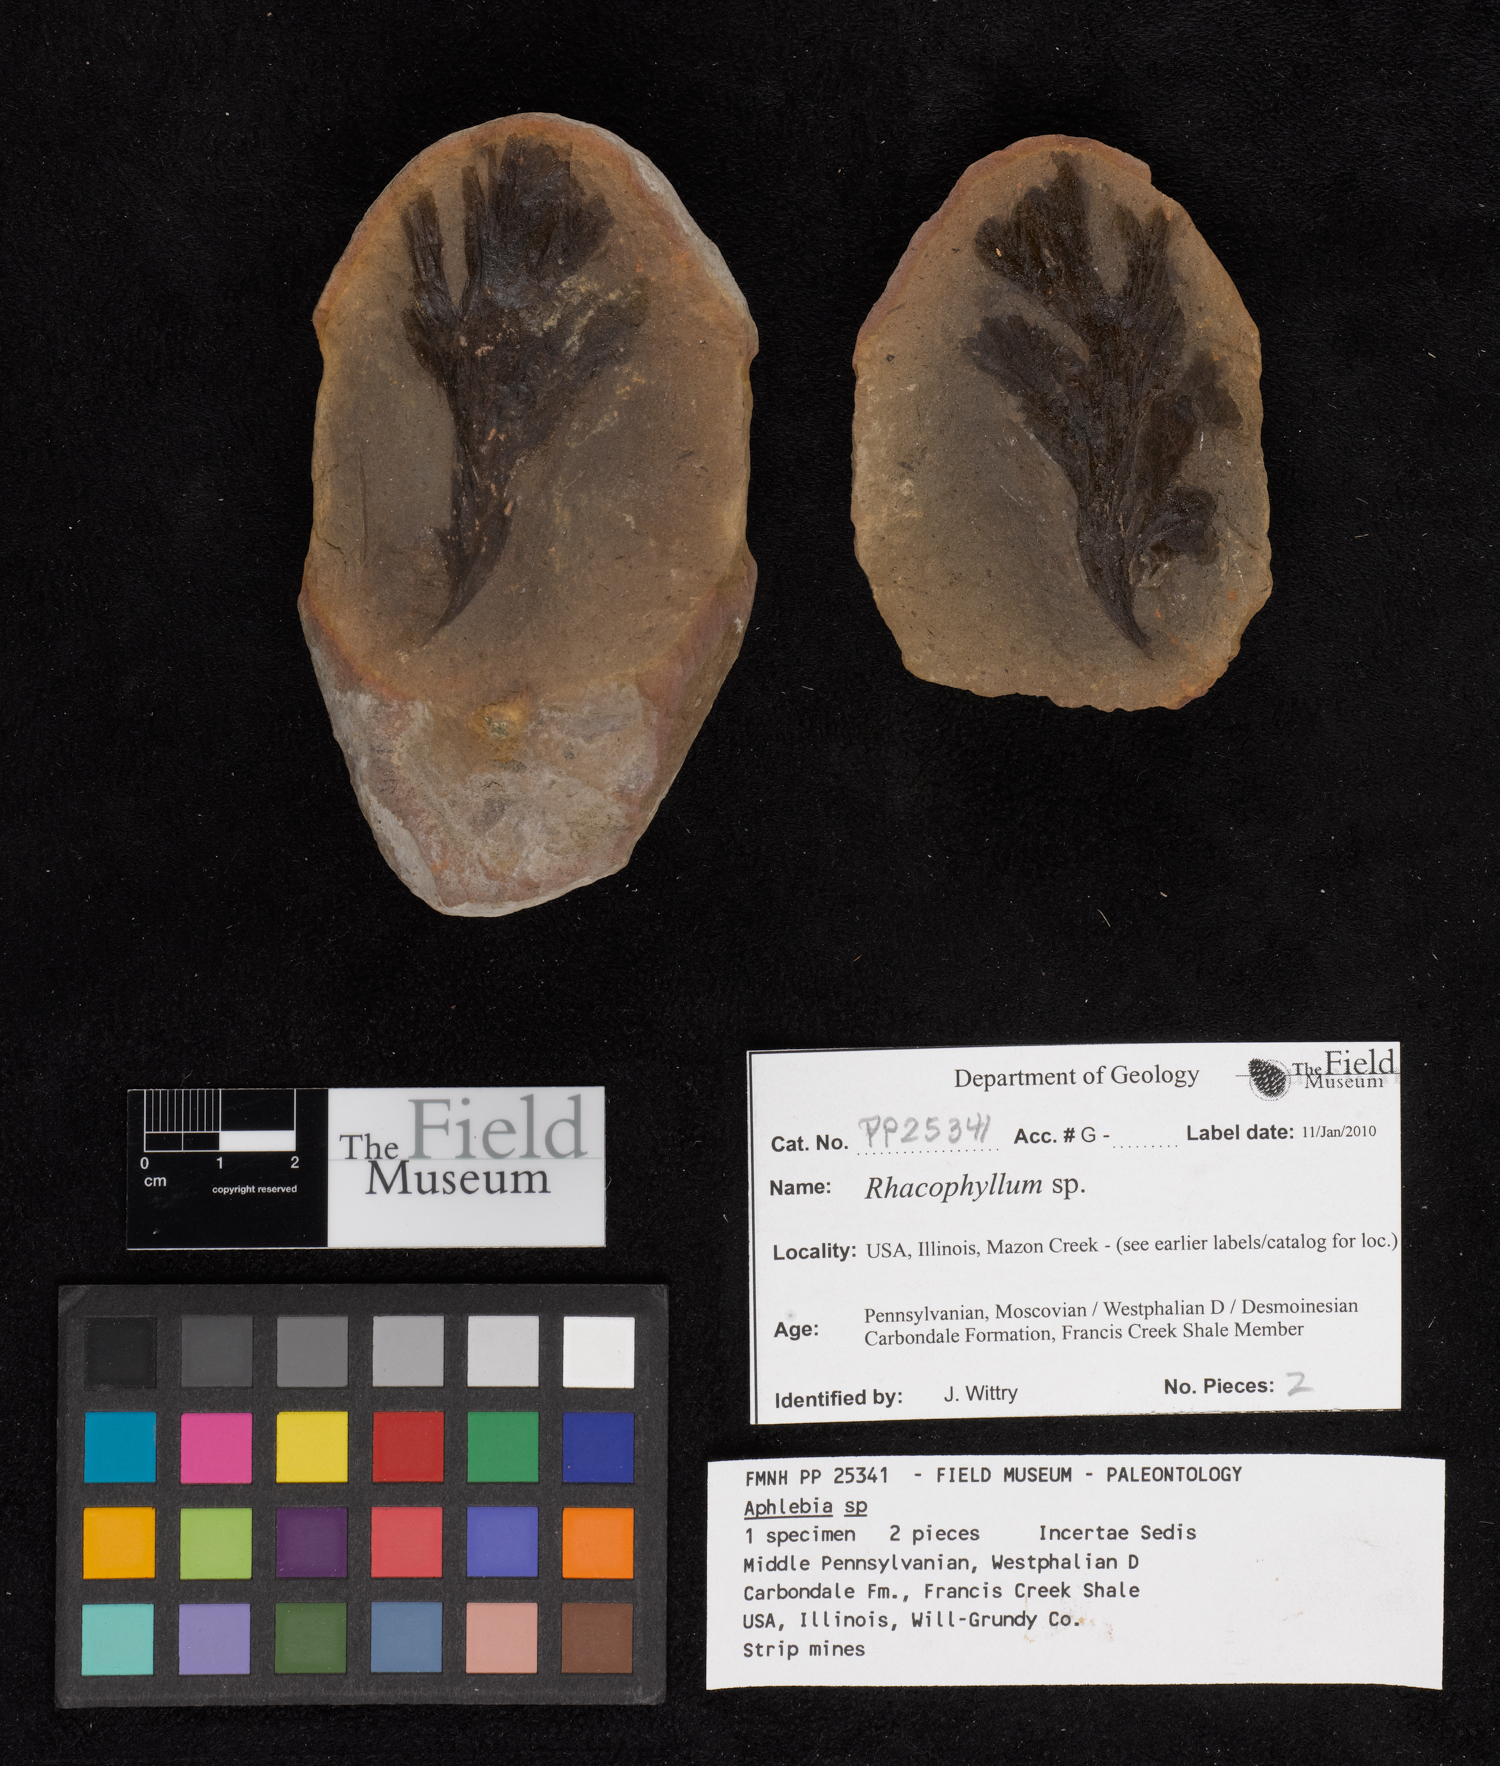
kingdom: Plantae
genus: Rhacophyllum
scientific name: Rhacophyllum
